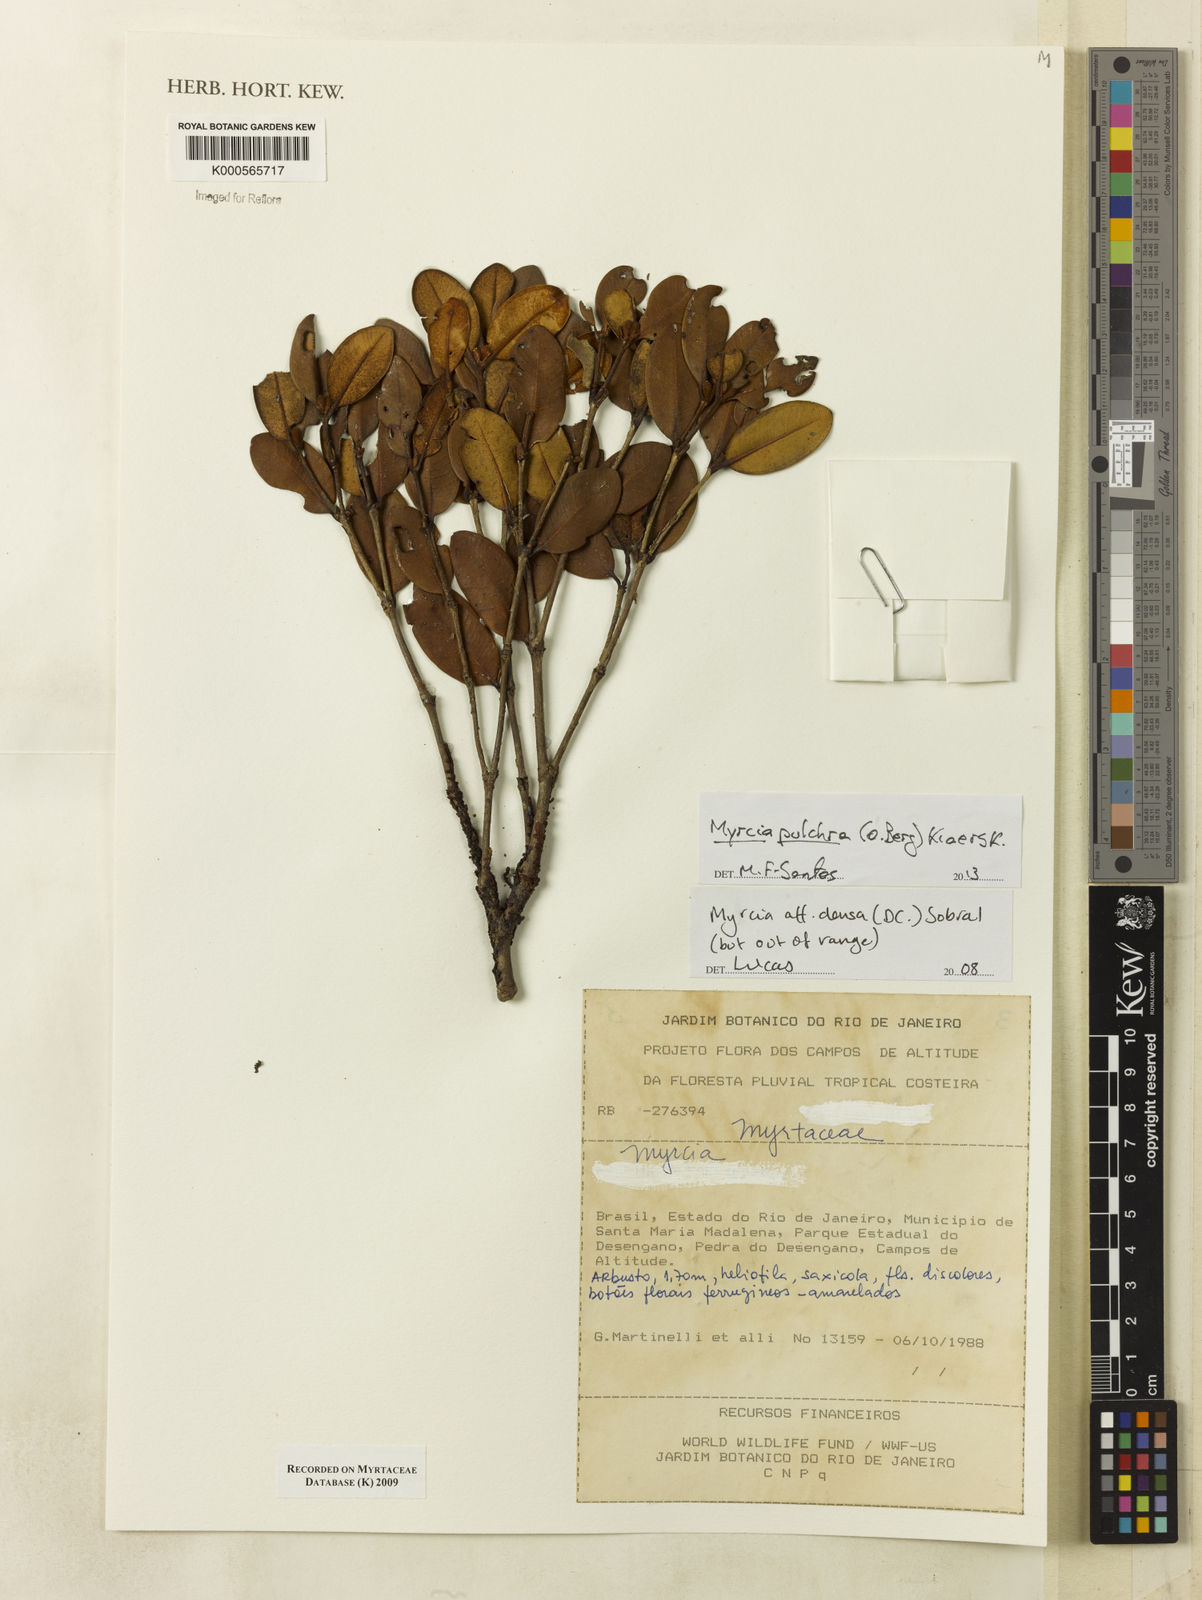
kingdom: Plantae
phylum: Tracheophyta
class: Magnoliopsida
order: Myrtales
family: Myrtaceae
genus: Myrcia
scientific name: Myrcia densa
